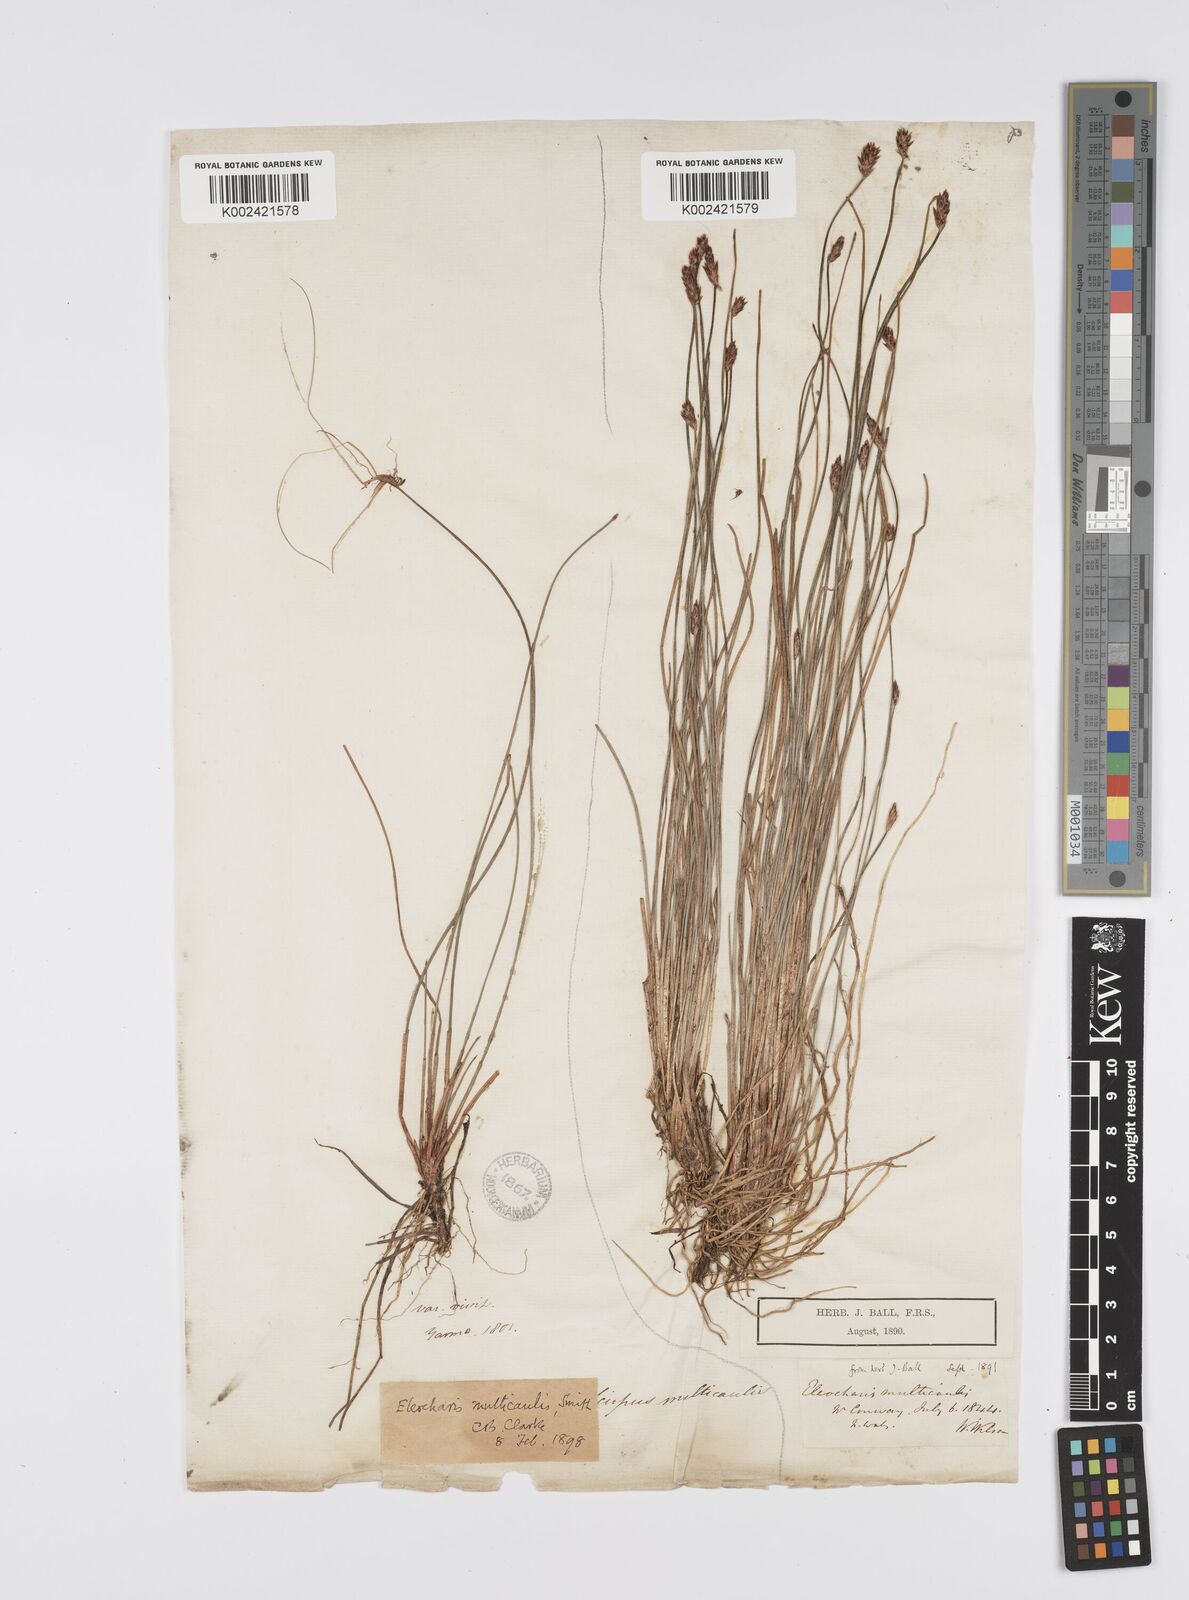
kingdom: Plantae
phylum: Tracheophyta
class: Liliopsida
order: Poales
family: Cyperaceae
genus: Eleocharis
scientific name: Eleocharis multicaulis
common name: Many-stalked spike-rush
